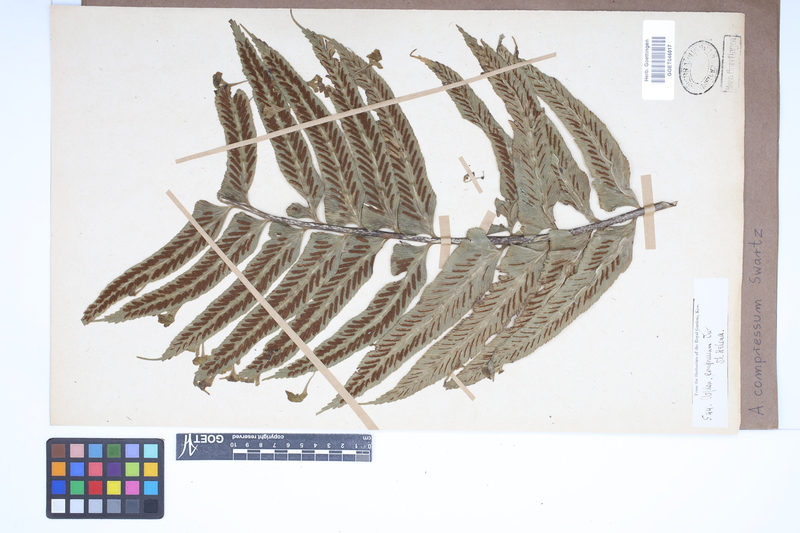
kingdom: Plantae
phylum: Tracheophyta
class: Polypodiopsida
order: Polypodiales
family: Aspleniaceae
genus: Asplenium
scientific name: Asplenium compressum
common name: Hen and chicks fern
